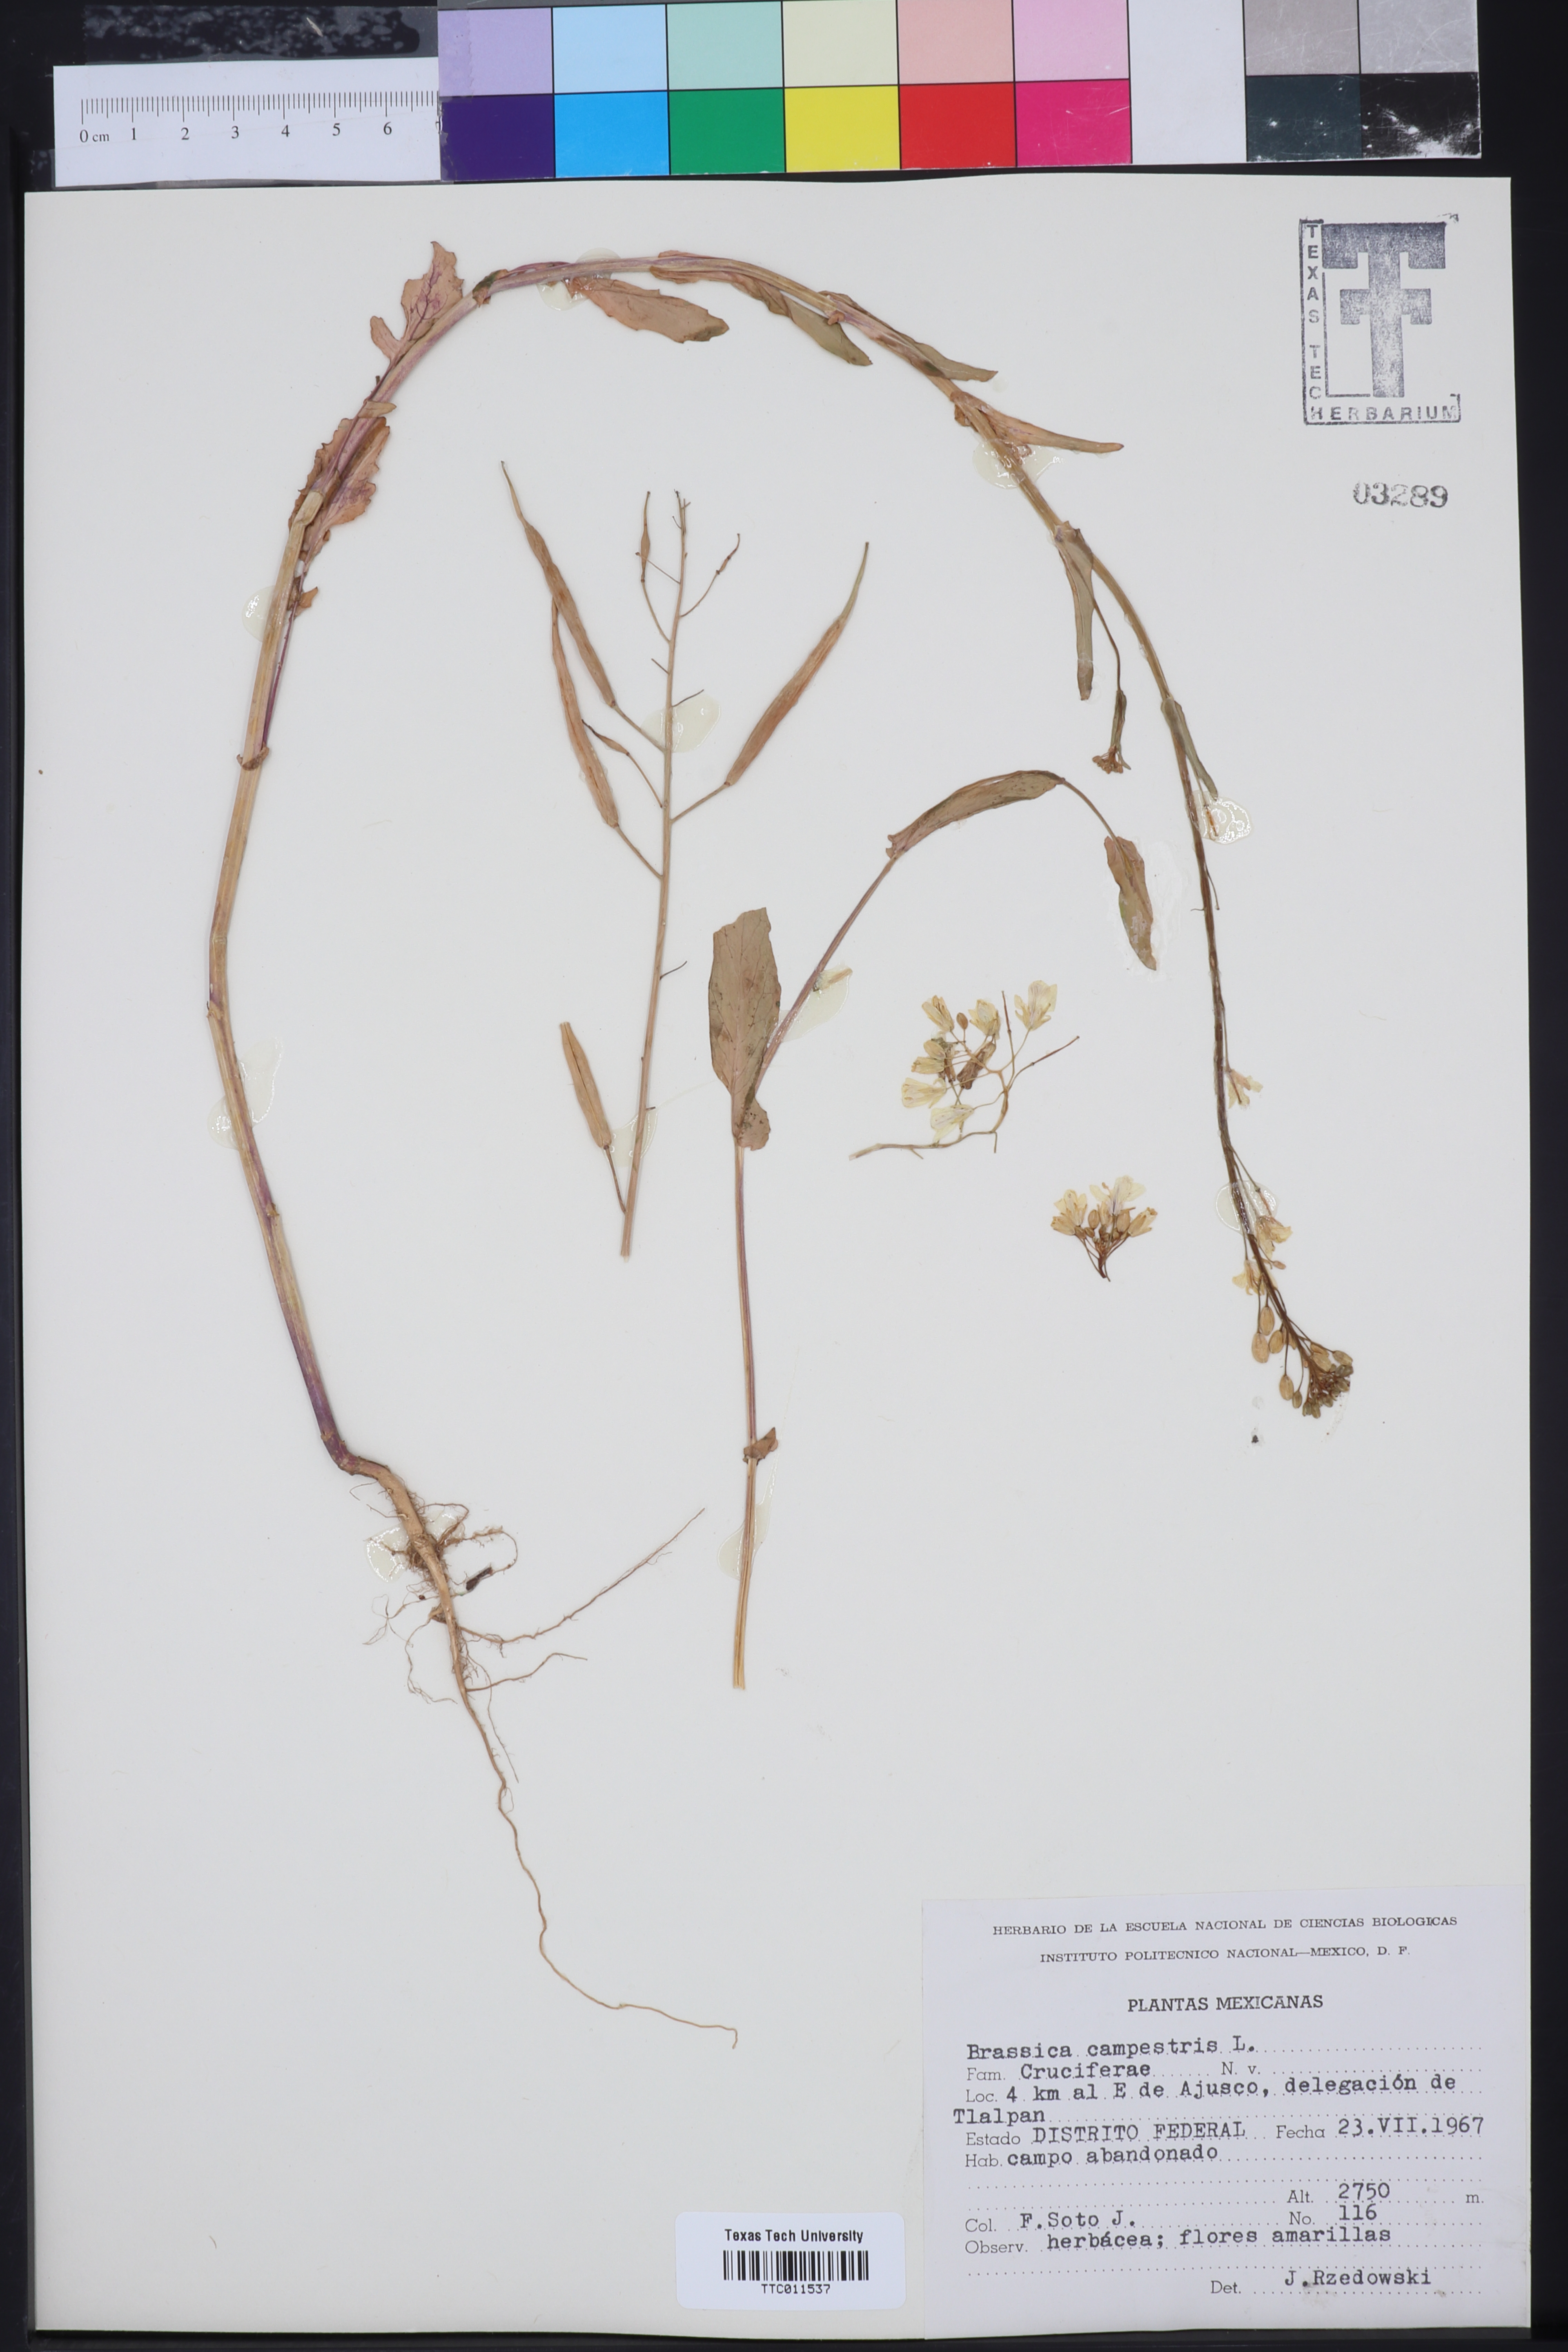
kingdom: Plantae
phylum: Tracheophyta
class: Magnoliopsida
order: Brassicales
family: Brassicaceae
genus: Brassica
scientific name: Brassica rapa
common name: Field mustard
